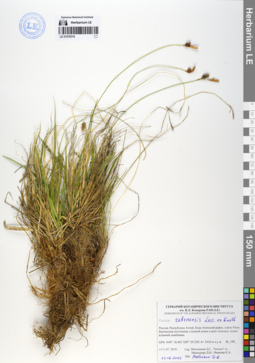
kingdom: Plantae
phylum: Tracheophyta
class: Liliopsida
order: Poales
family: Cyperaceae
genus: Carex
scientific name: Carex umbrosa
